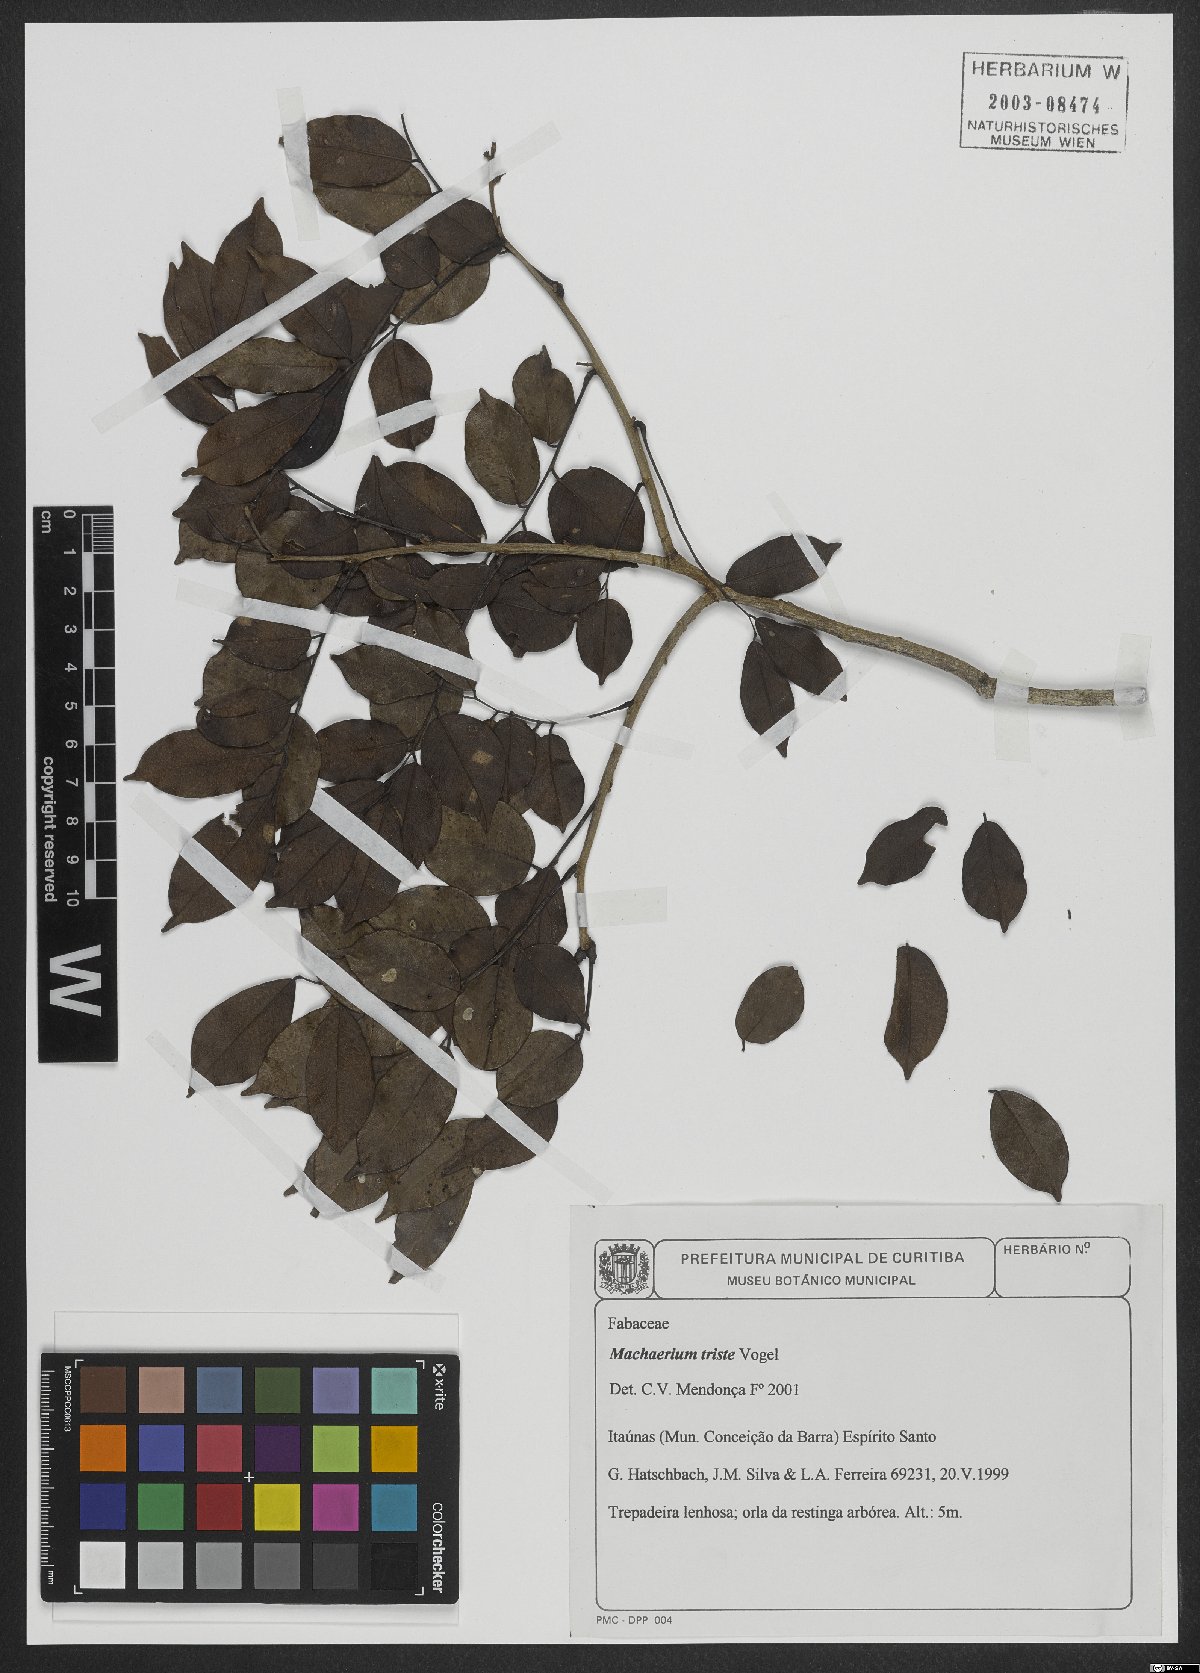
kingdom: Plantae
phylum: Tracheophyta
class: Magnoliopsida
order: Fabales
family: Fabaceae
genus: Machaerium
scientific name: Machaerium brasiliense
